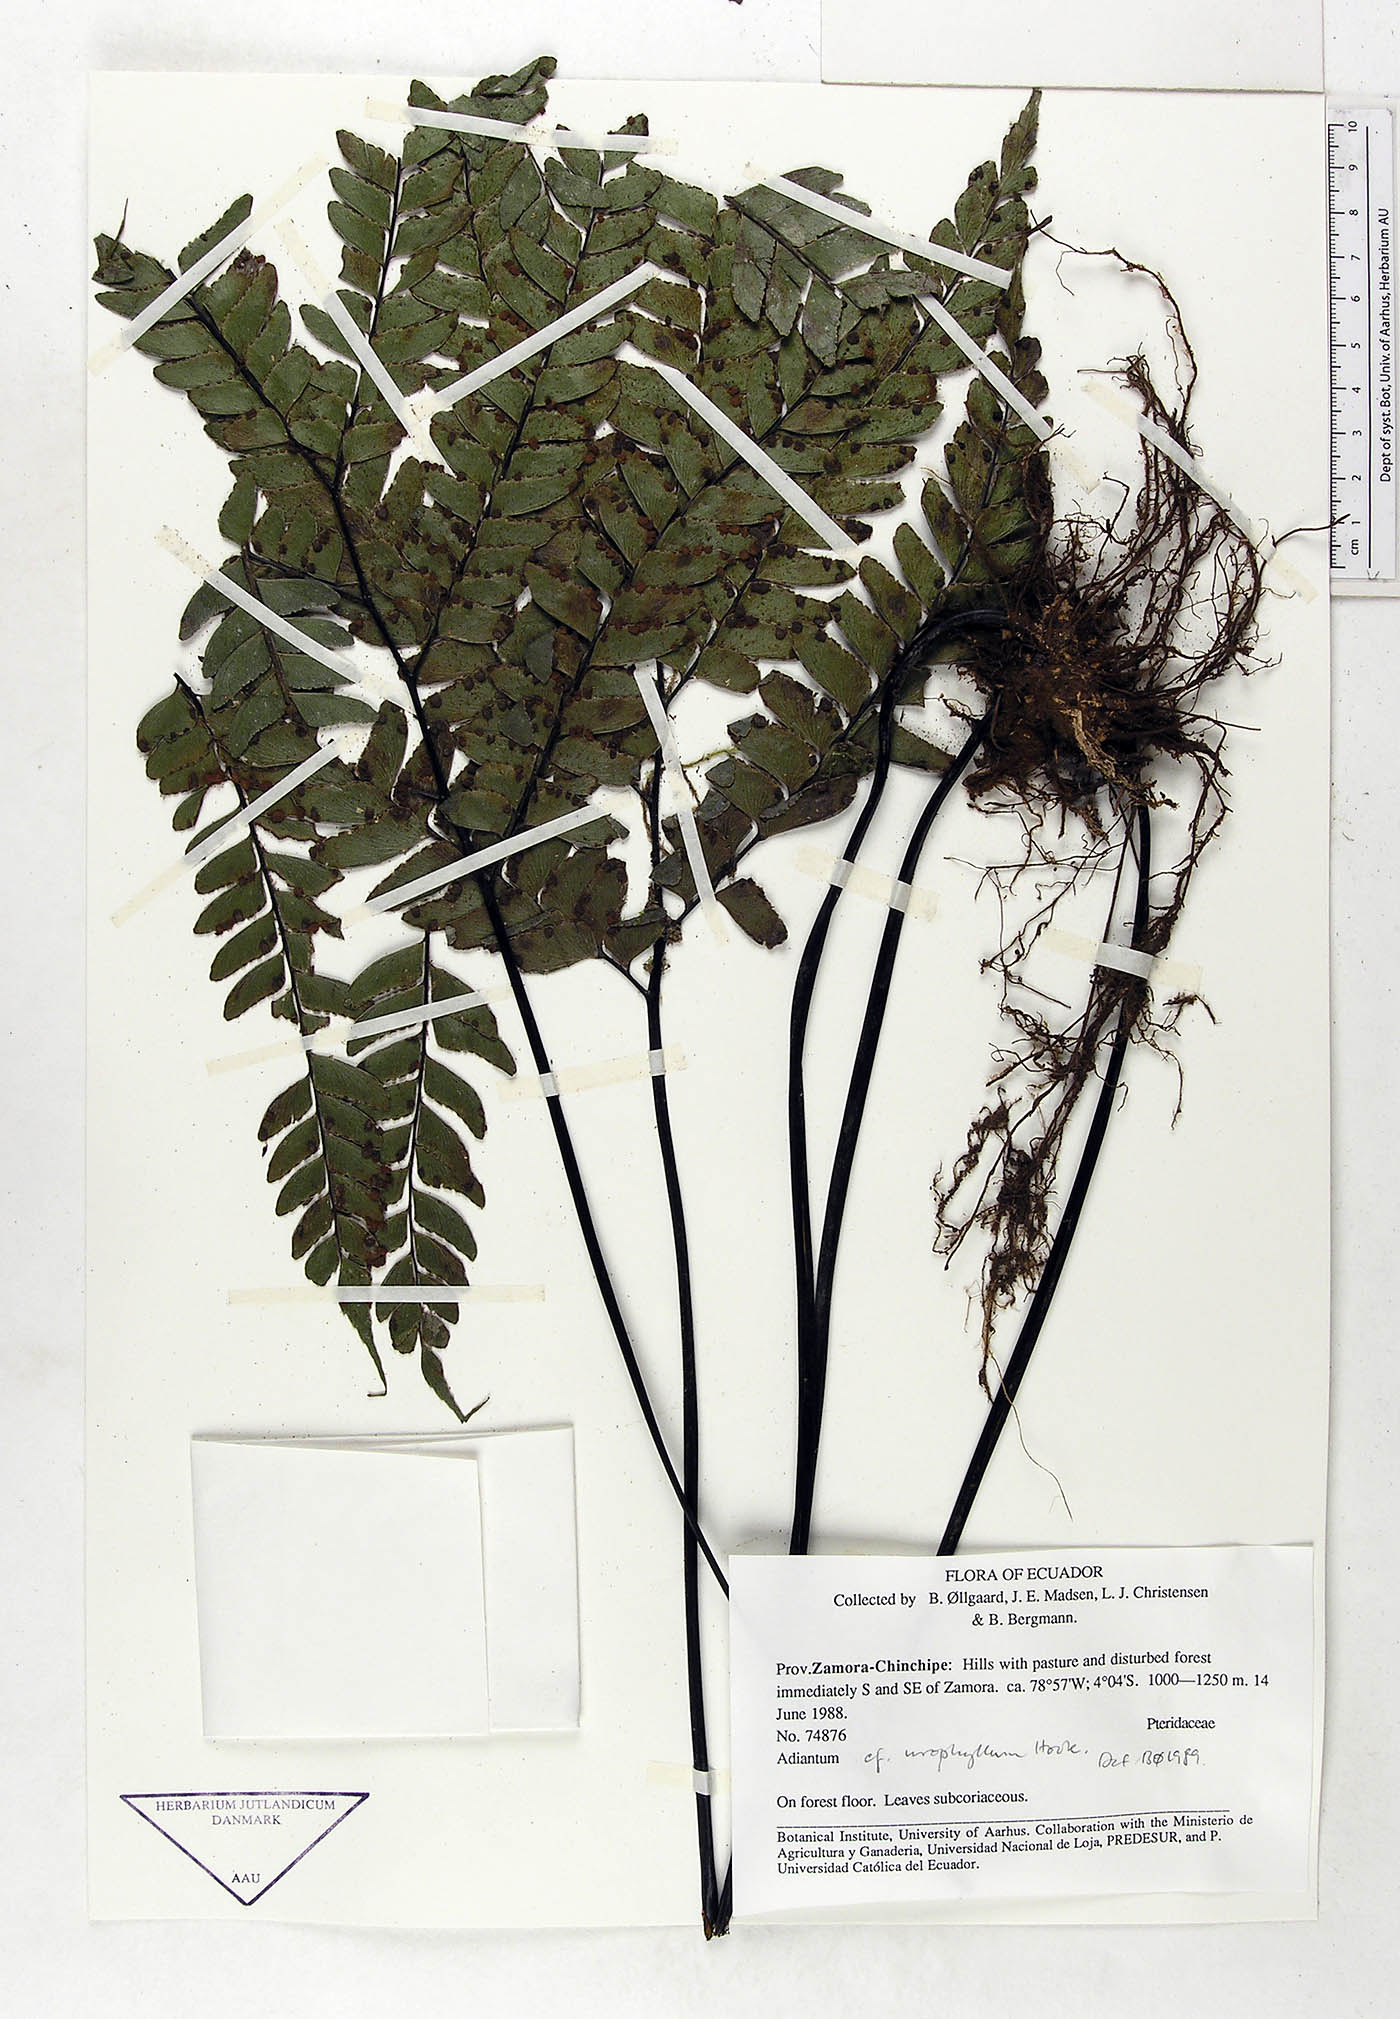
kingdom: Plantae
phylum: Tracheophyta
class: Polypodiopsida
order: Polypodiales
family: Pteridaceae
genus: Adiantum
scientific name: Adiantum urophyllum
